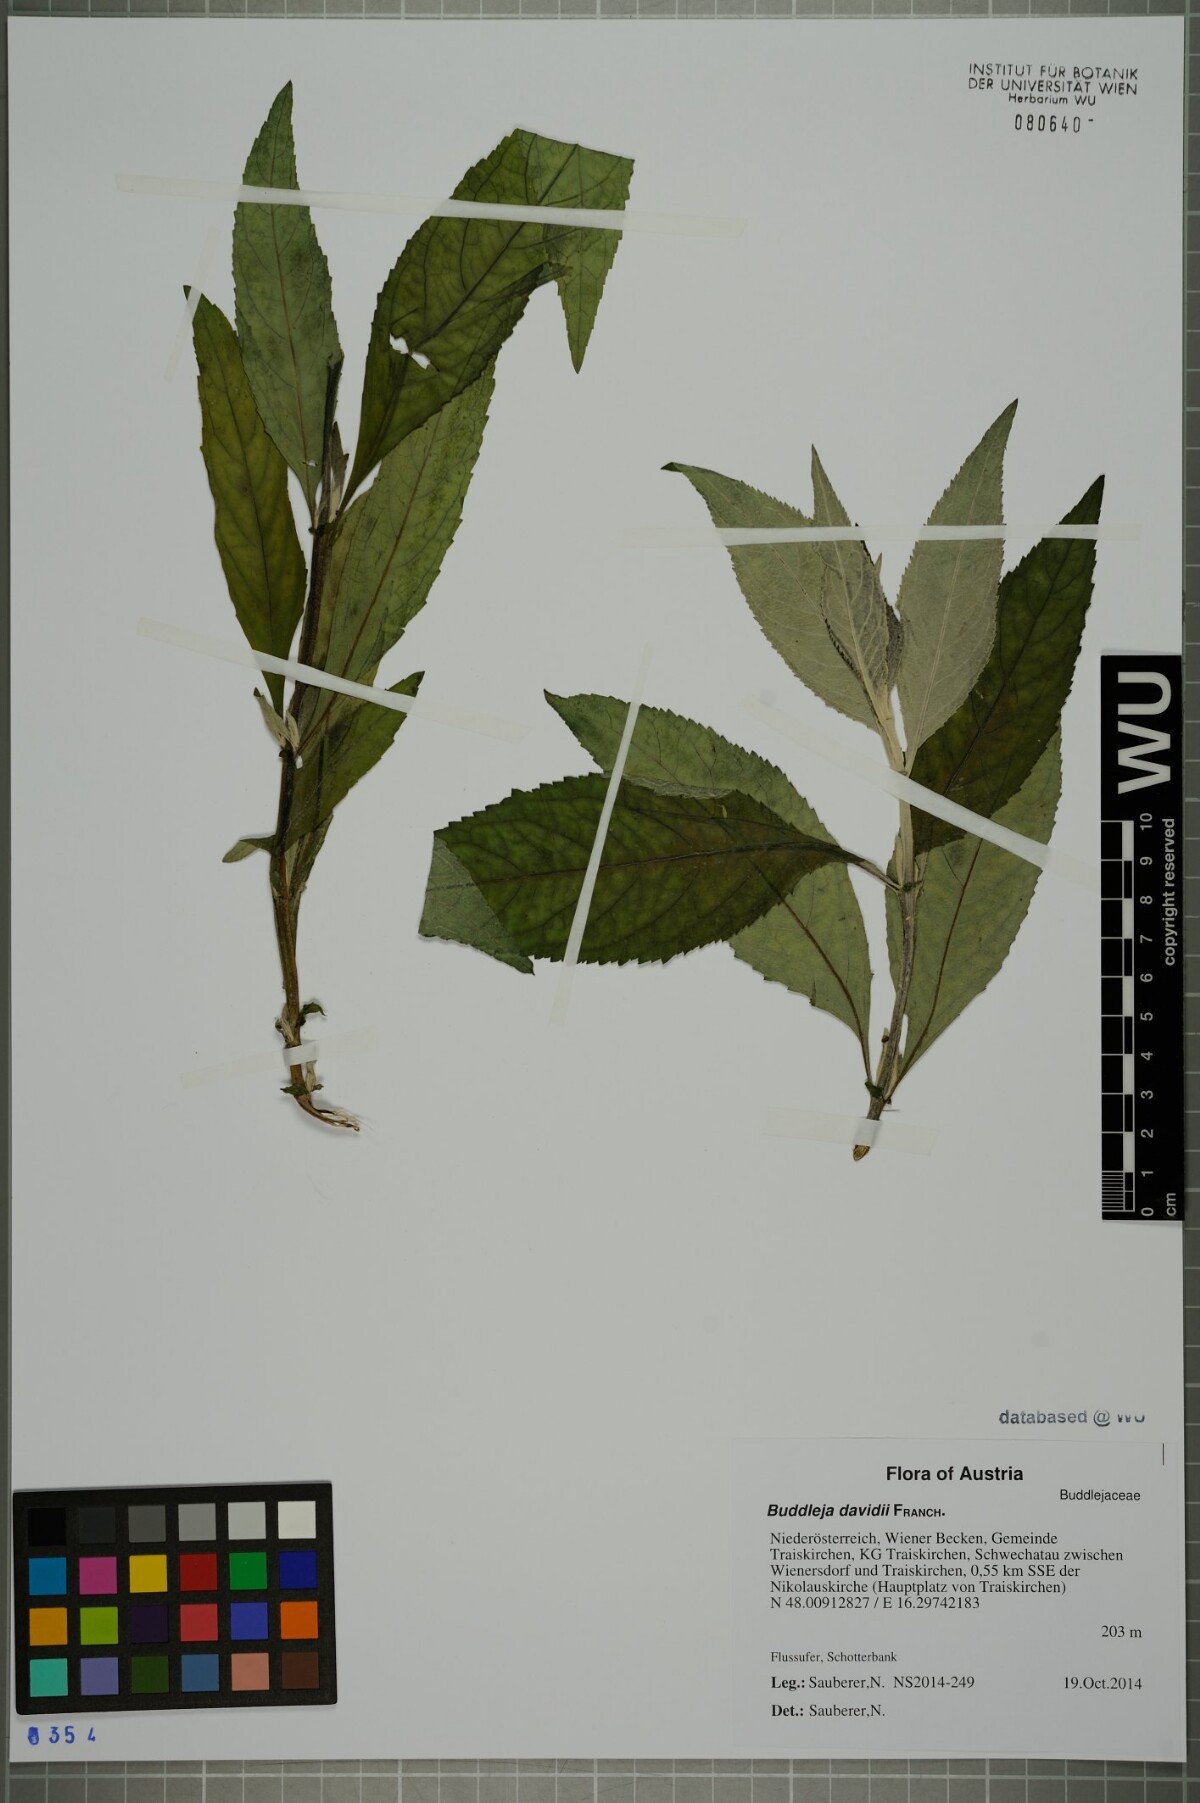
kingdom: Plantae
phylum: Tracheophyta
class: Magnoliopsida
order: Lamiales
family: Scrophulariaceae
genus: Buddleja
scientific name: Buddleja davidii
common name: Butterfly-bush
